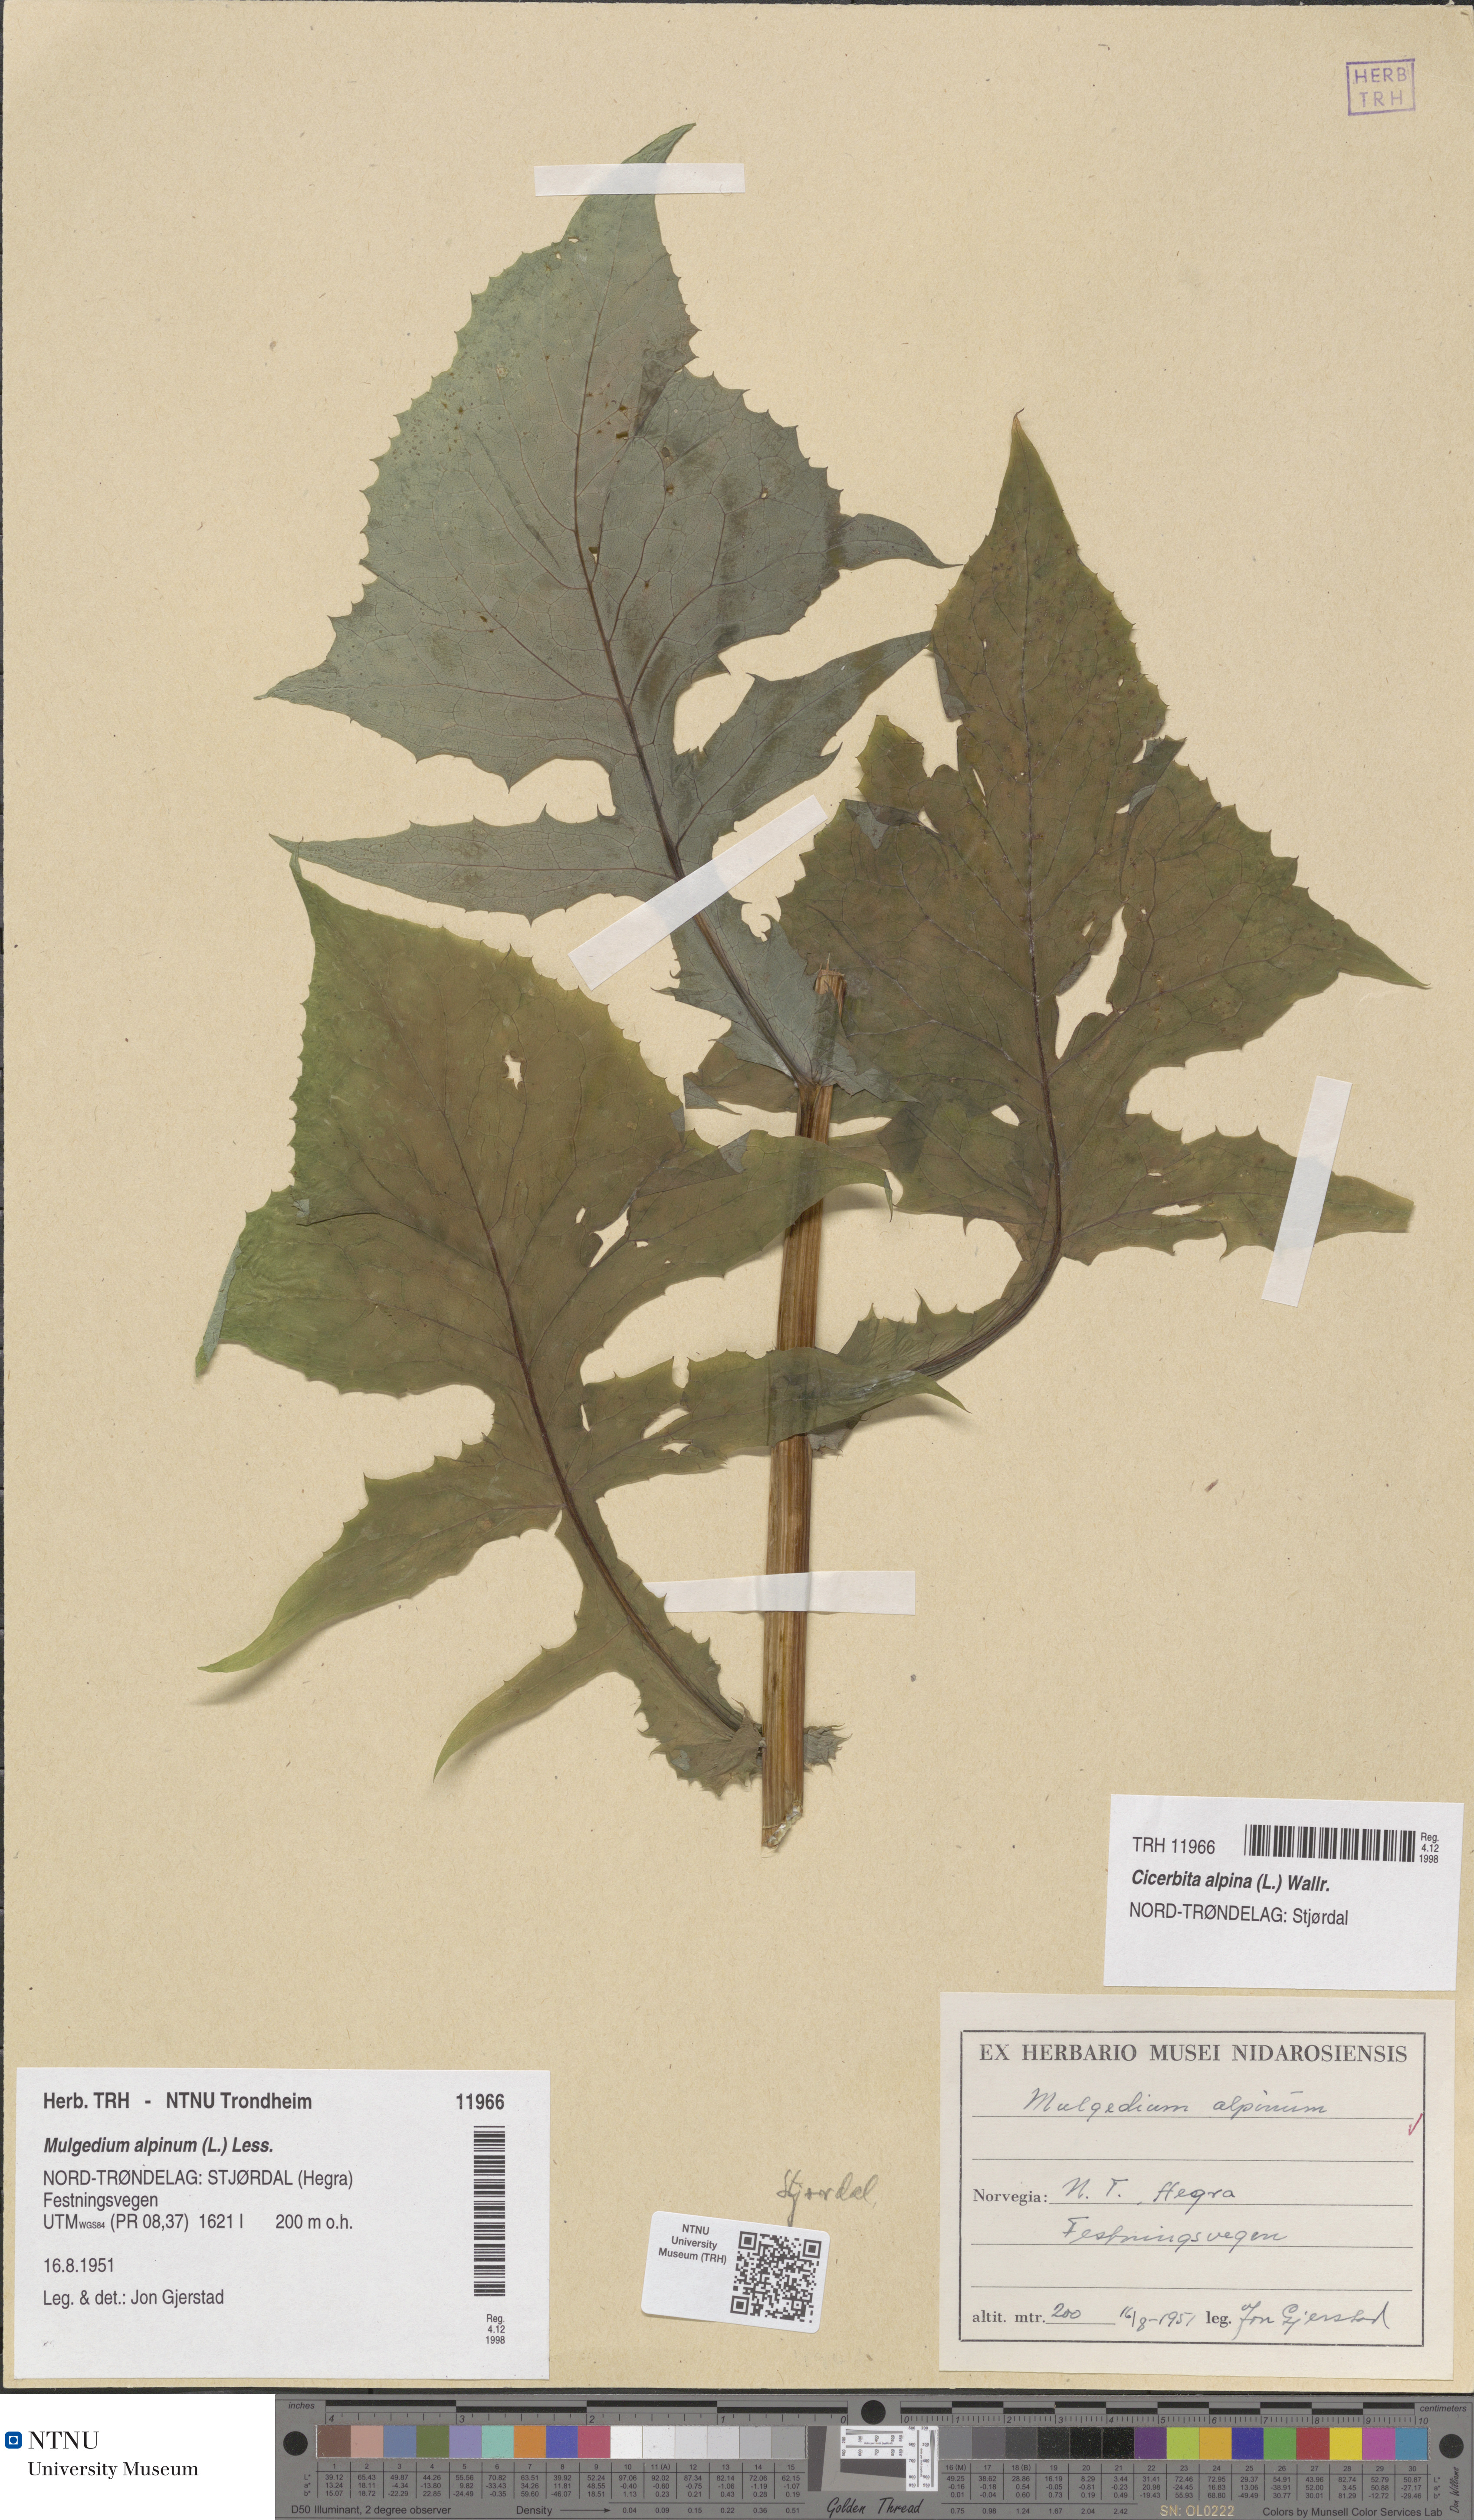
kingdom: Plantae
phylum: Tracheophyta
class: Magnoliopsida
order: Asterales
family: Asteraceae
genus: Cicerbita
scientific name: Cicerbita alpina
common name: Alpine blue-sow-thistle
